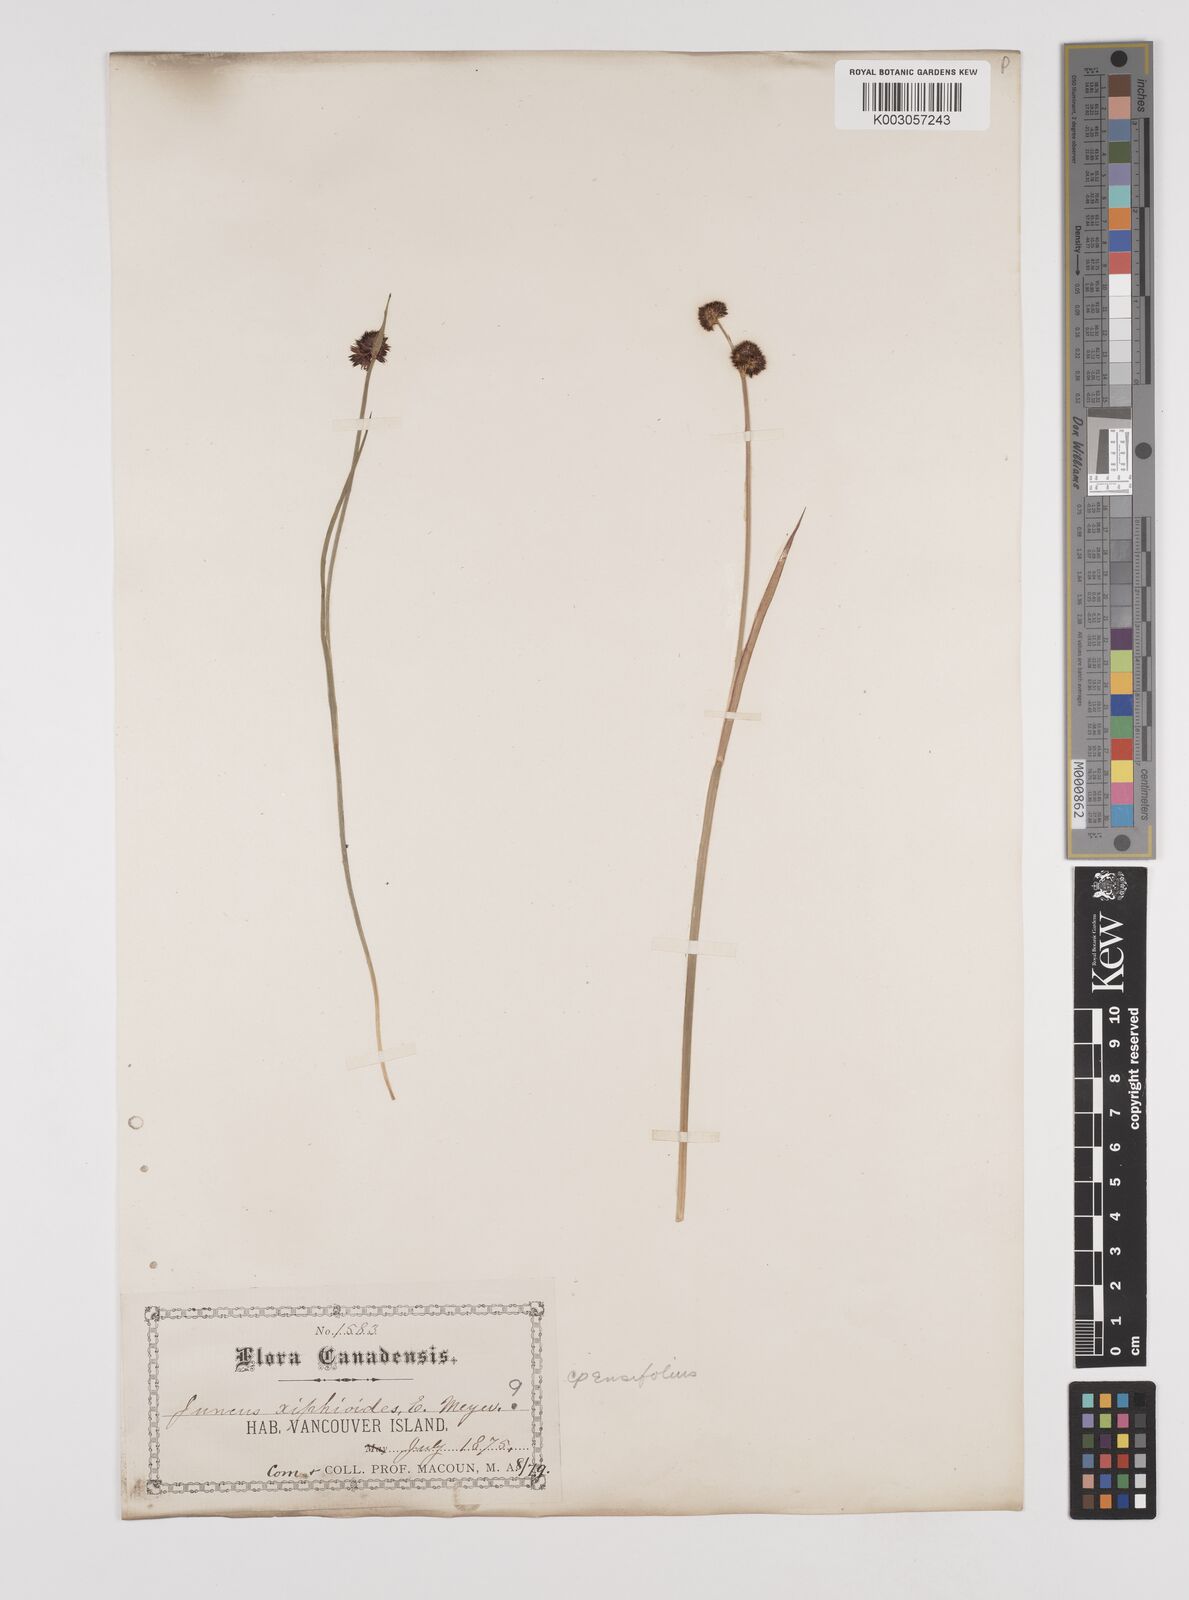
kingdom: Plantae
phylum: Tracheophyta
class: Liliopsida
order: Poales
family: Juncaceae
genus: Juncus
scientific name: Juncus xiphioides
